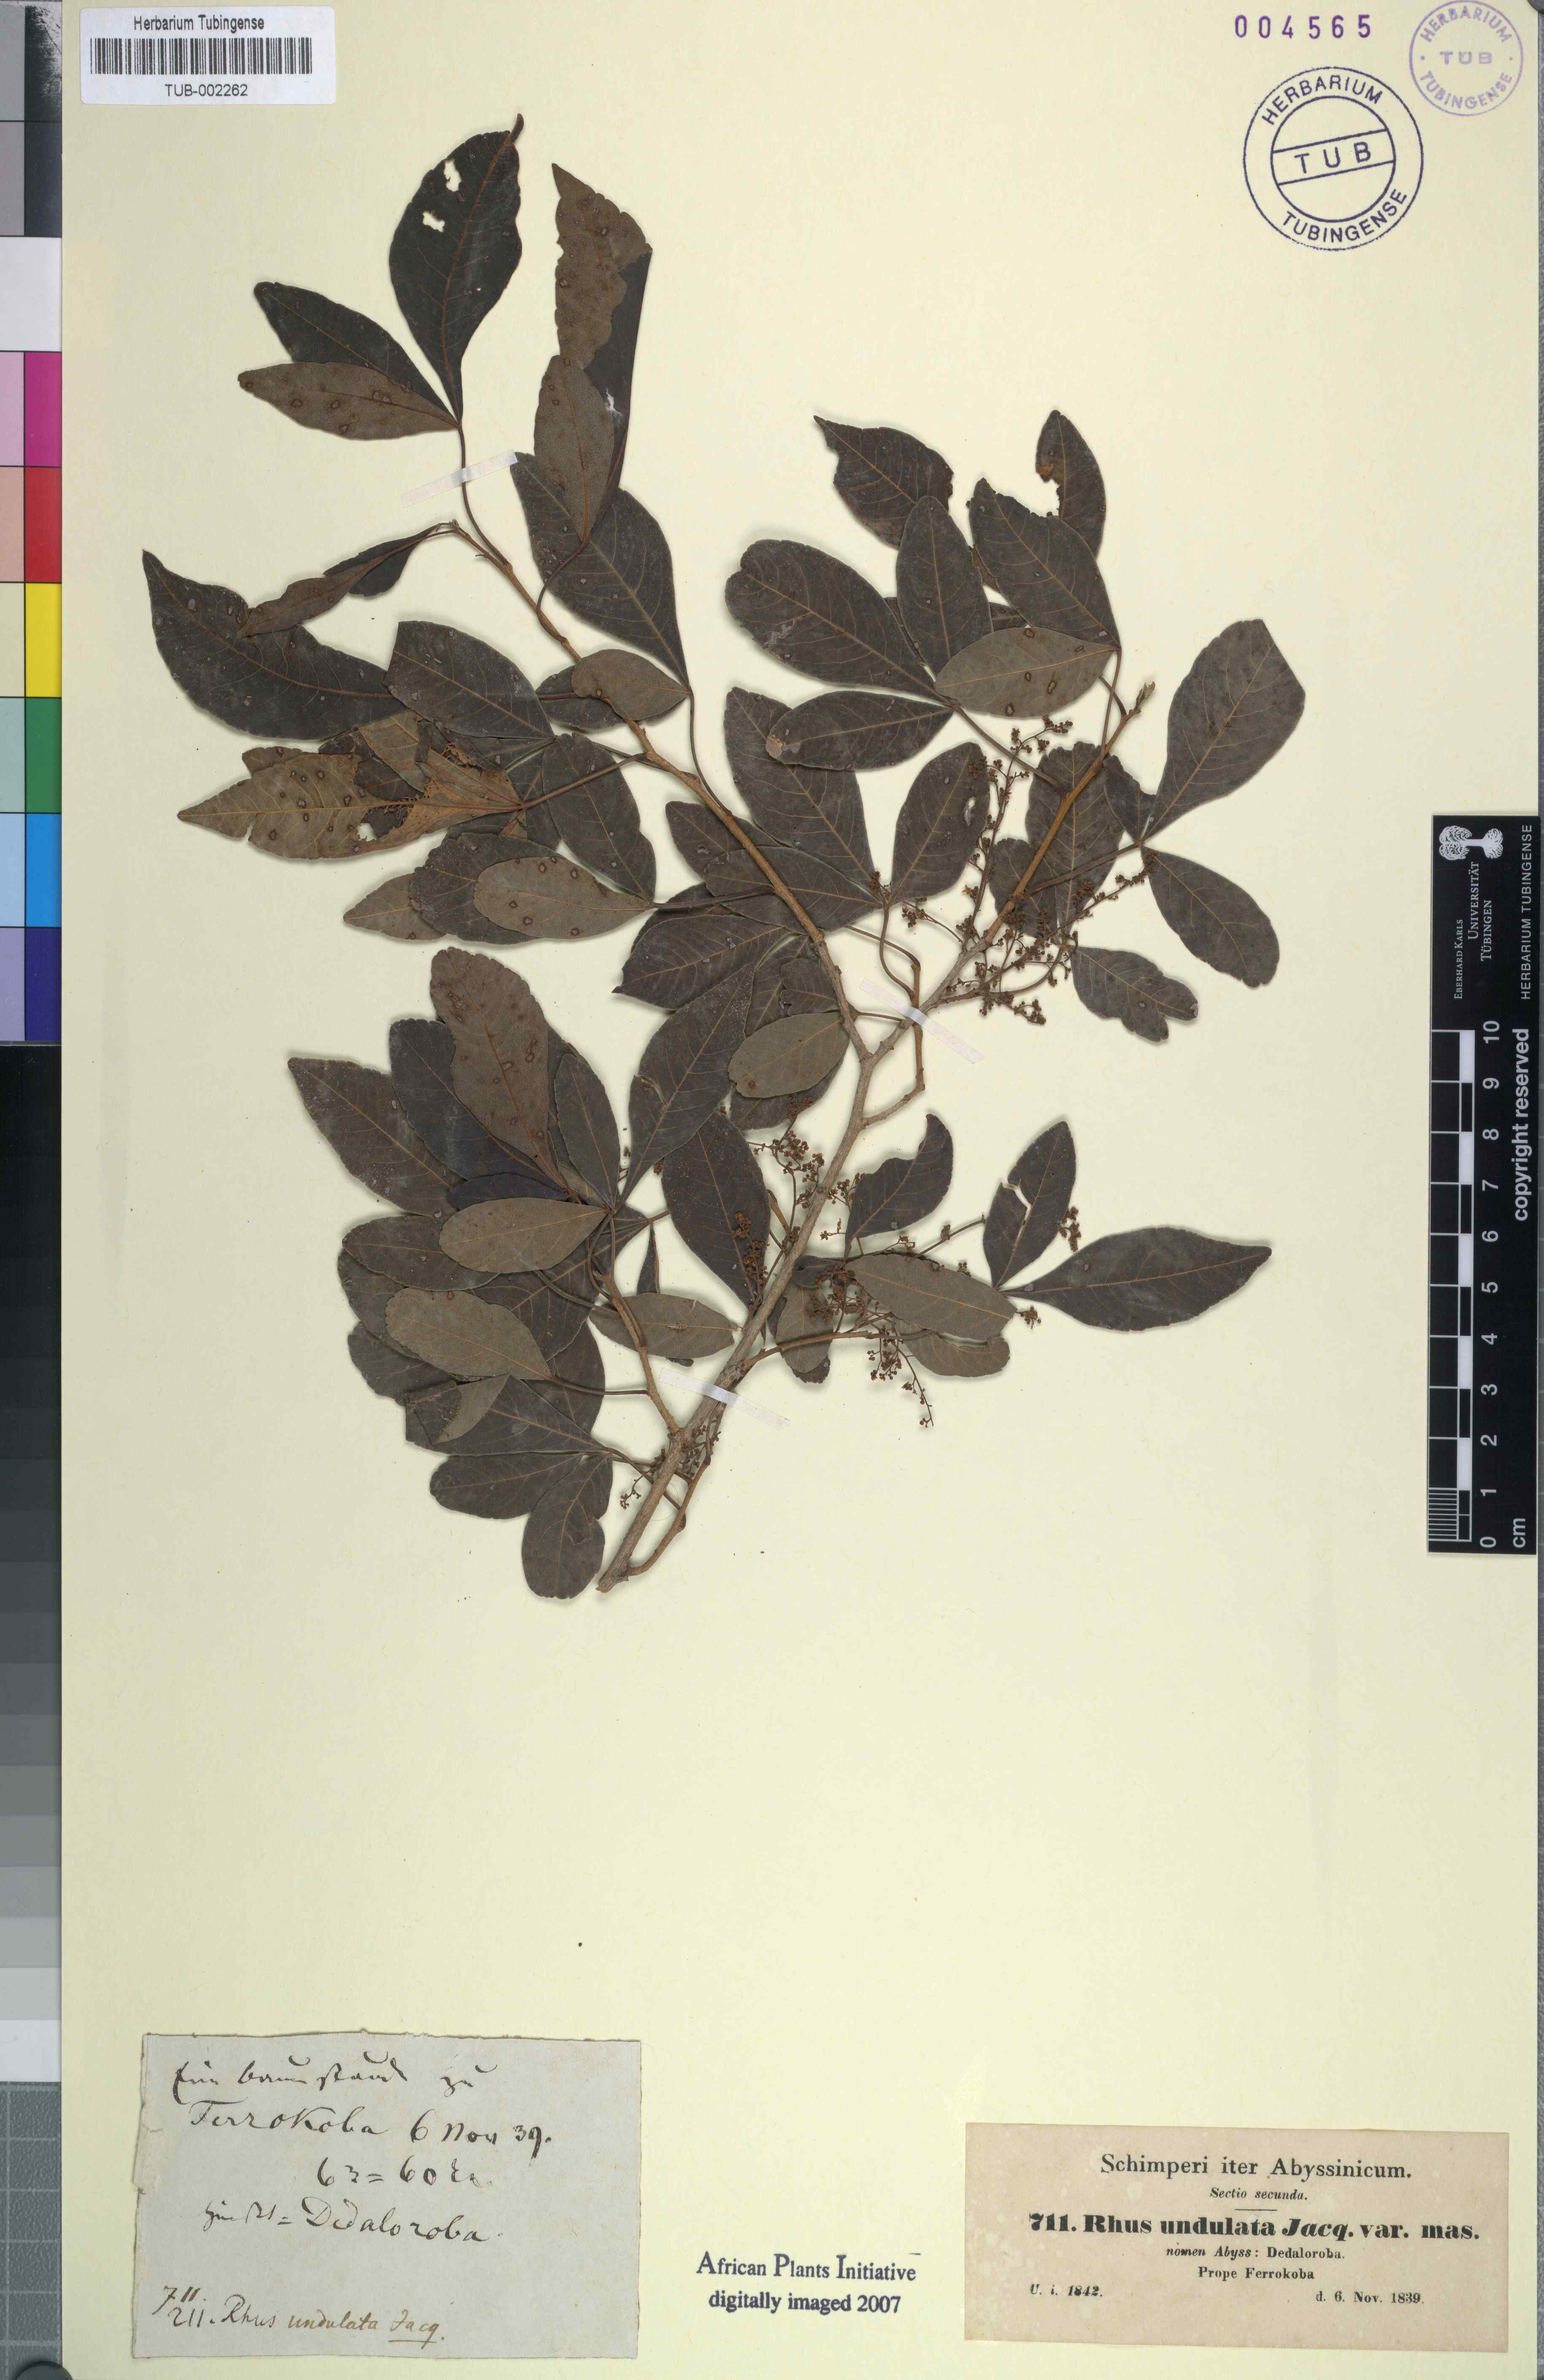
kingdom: Plantae
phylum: Tracheophyta
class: Magnoliopsida
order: Sapindales
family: Anacardiaceae
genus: Searsia
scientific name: Searsia undulata
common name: Namaqua kunibush
